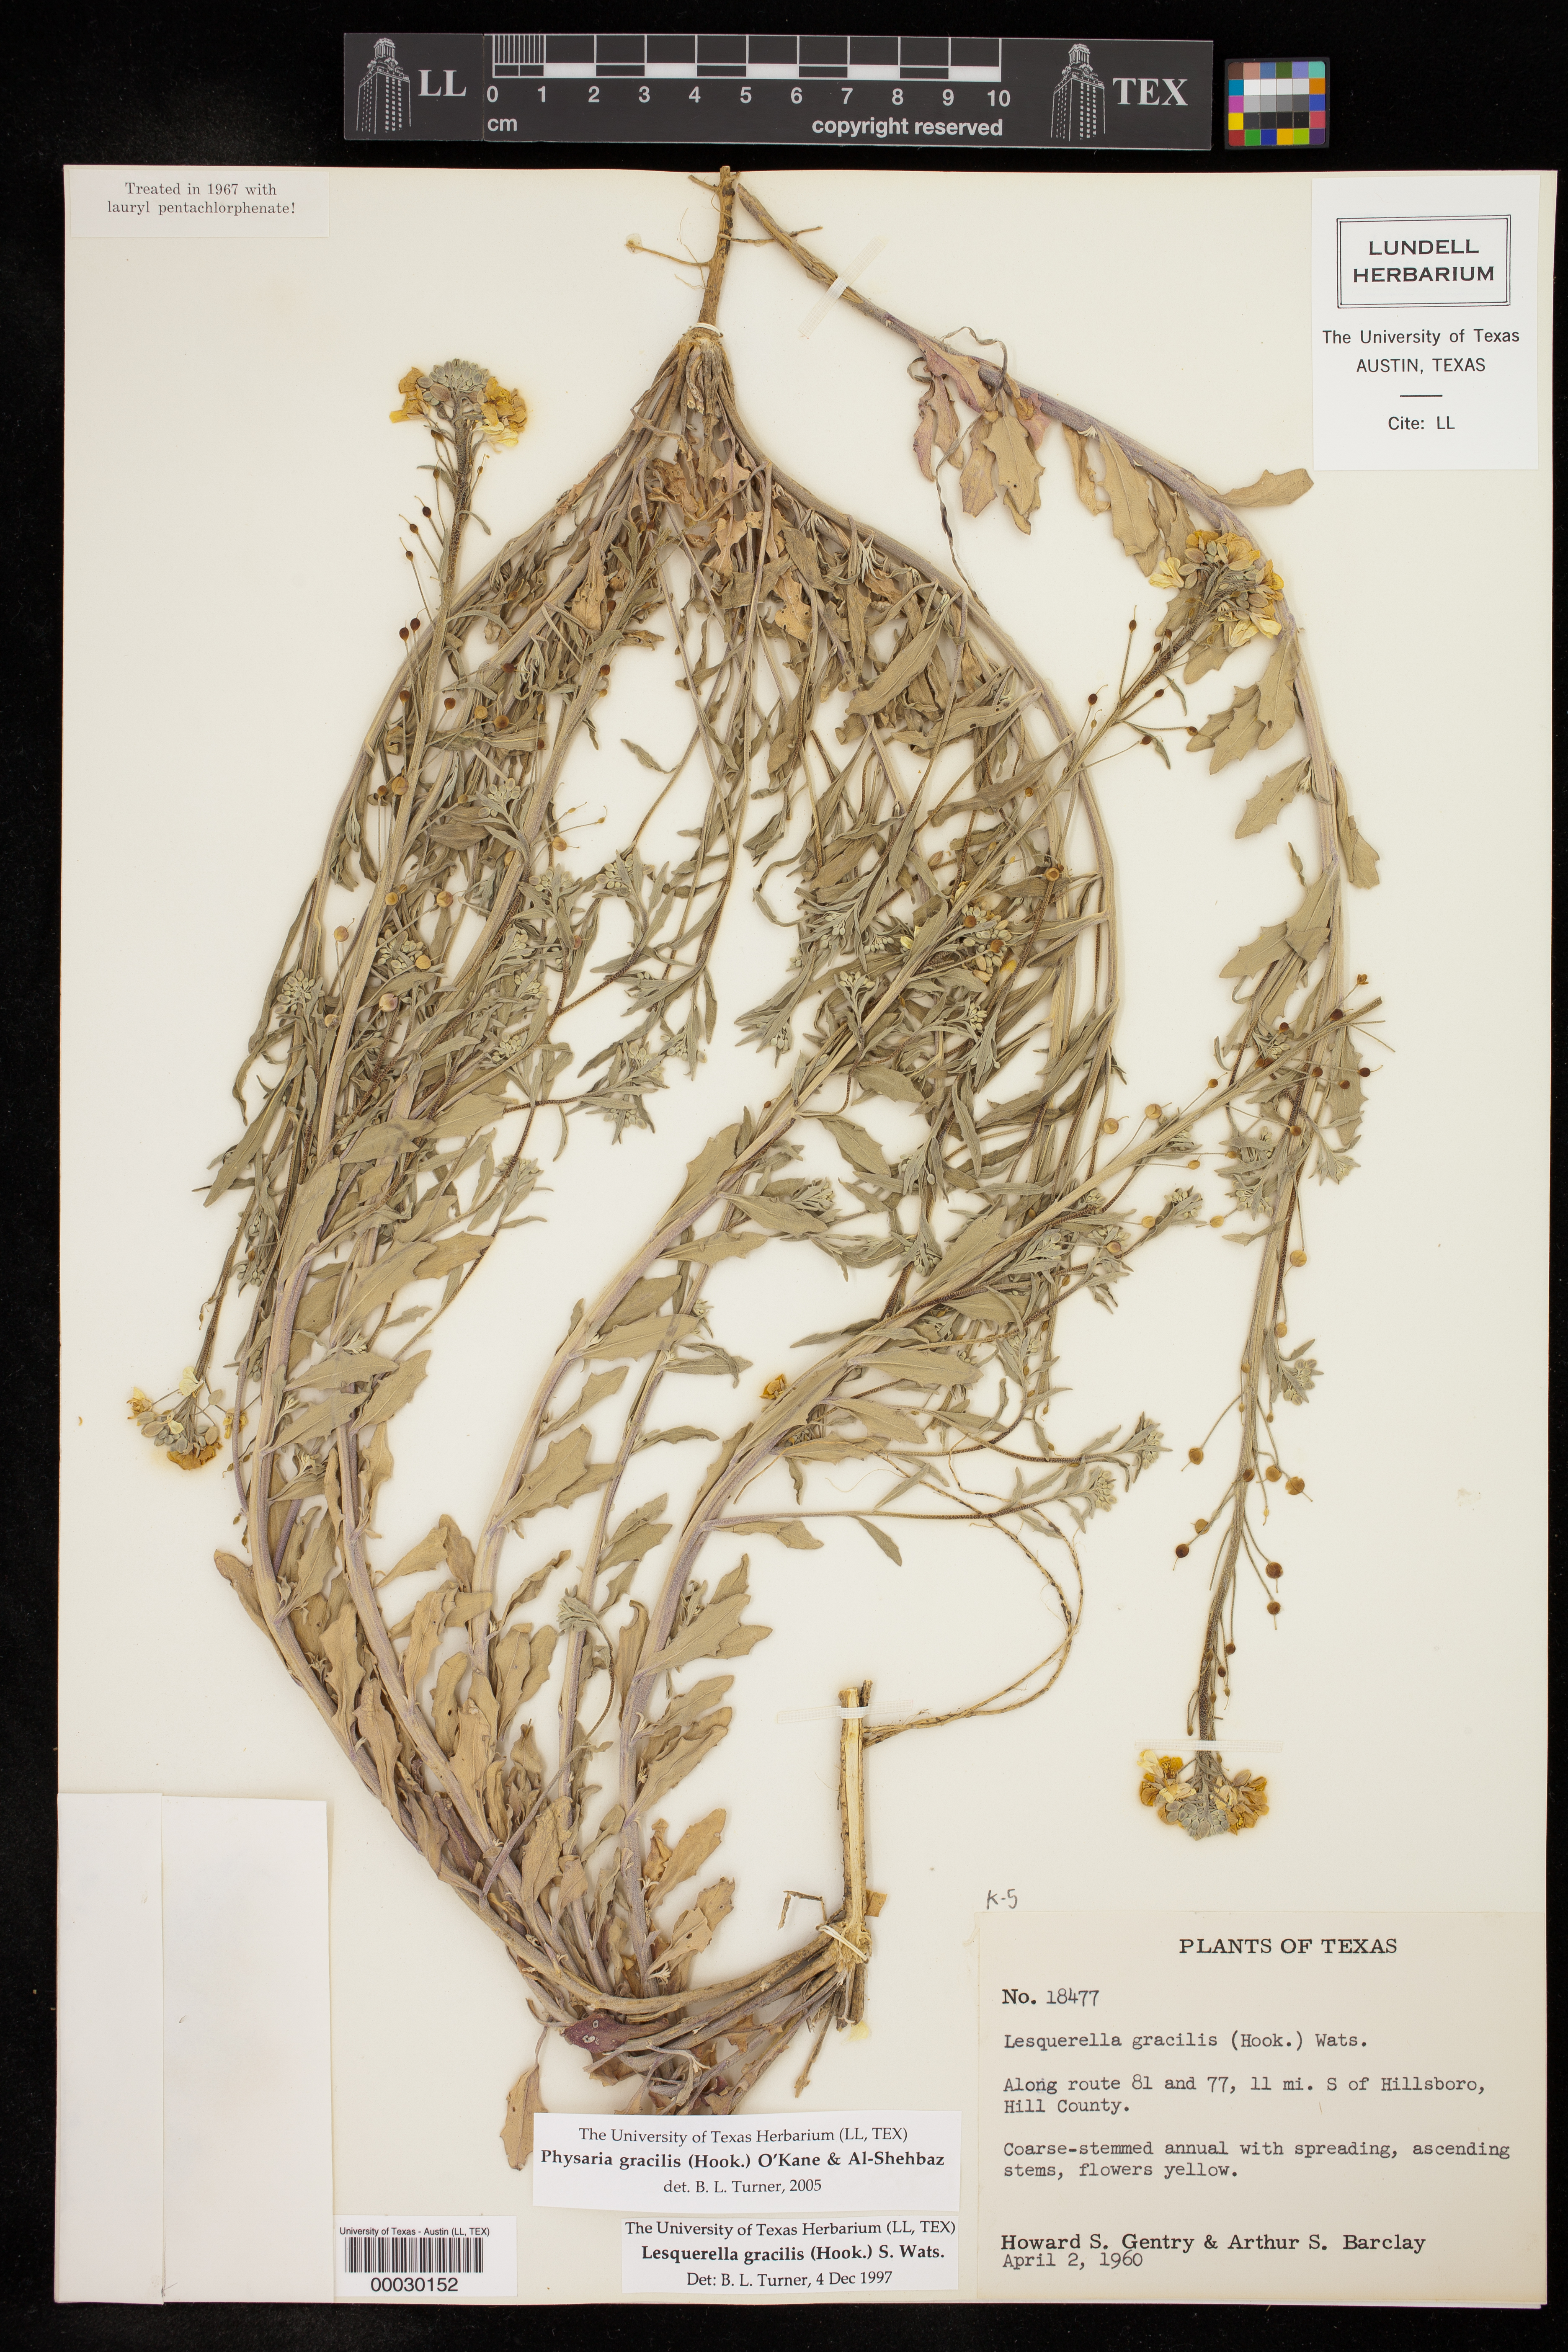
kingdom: Plantae
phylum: Tracheophyta
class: Magnoliopsida
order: Brassicales
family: Brassicaceae
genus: Physaria
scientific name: Physaria gracilis
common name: Spreading bladderpod
